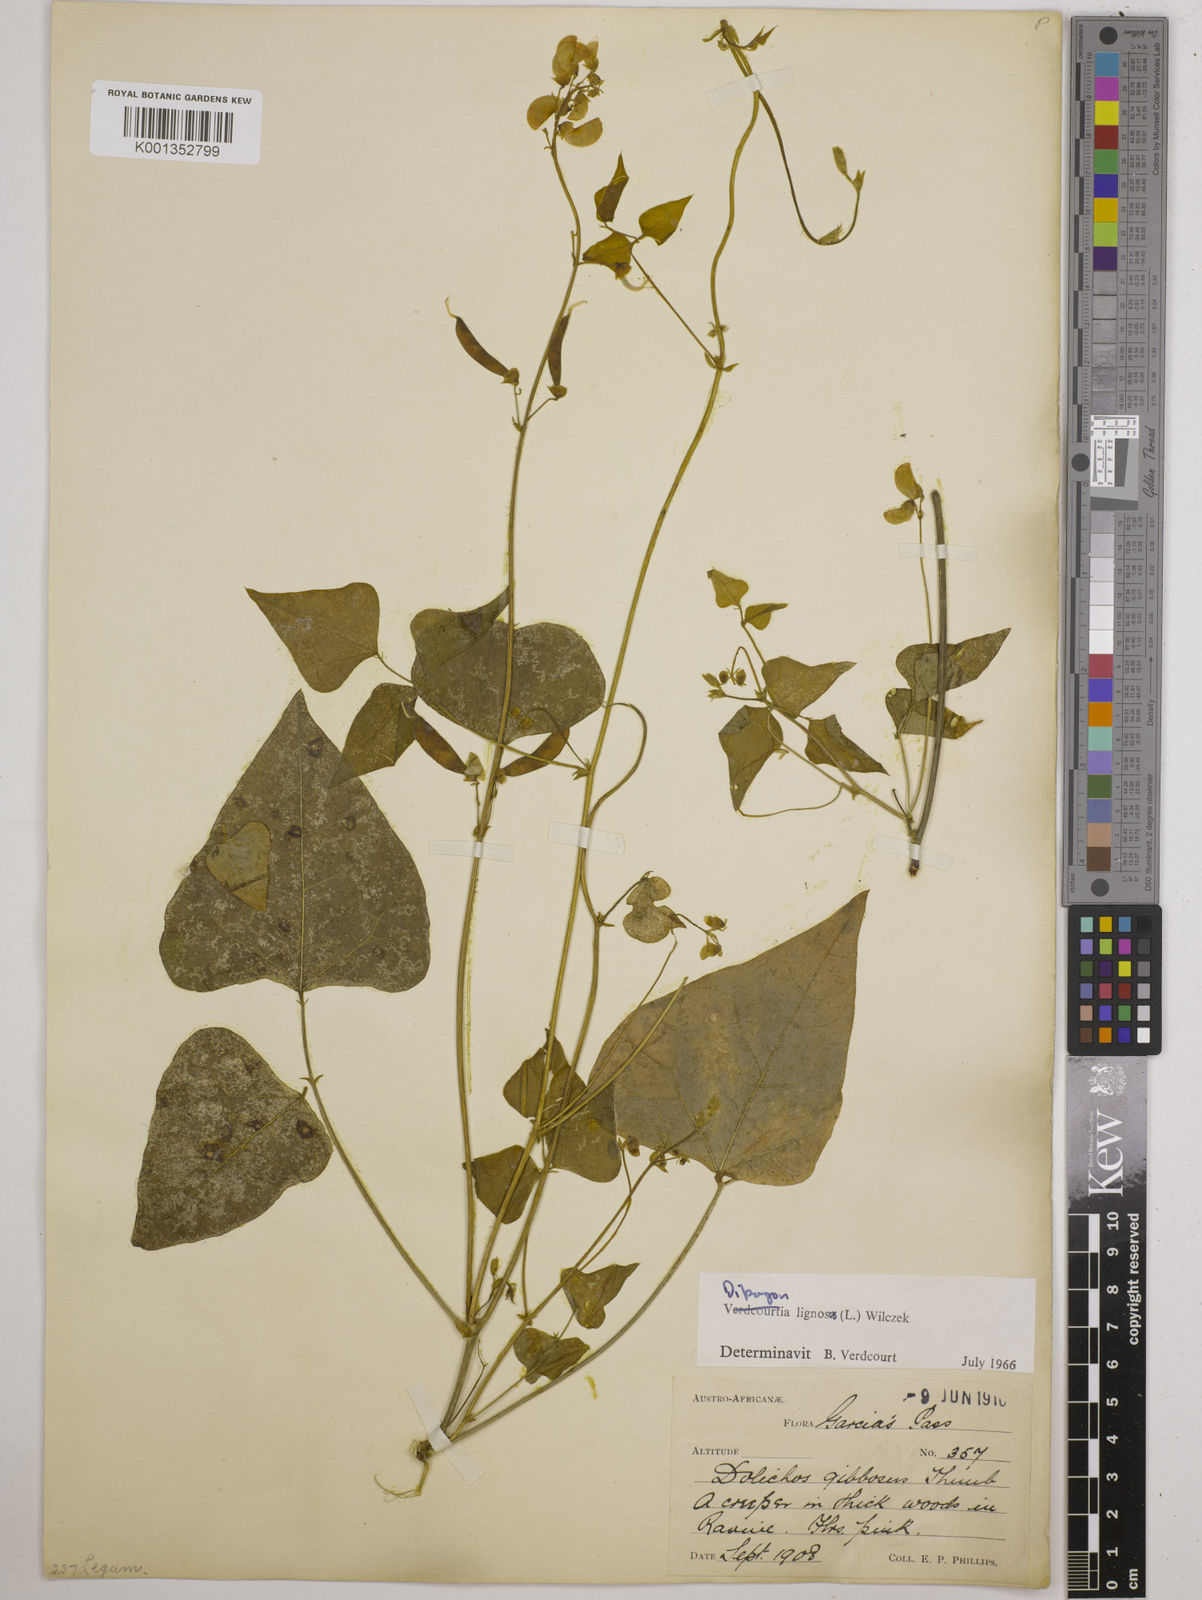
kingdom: Plantae
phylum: Tracheophyta
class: Magnoliopsida
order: Fabales
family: Fabaceae
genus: Dipogon
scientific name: Dipogon lignosus
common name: Okie bean
